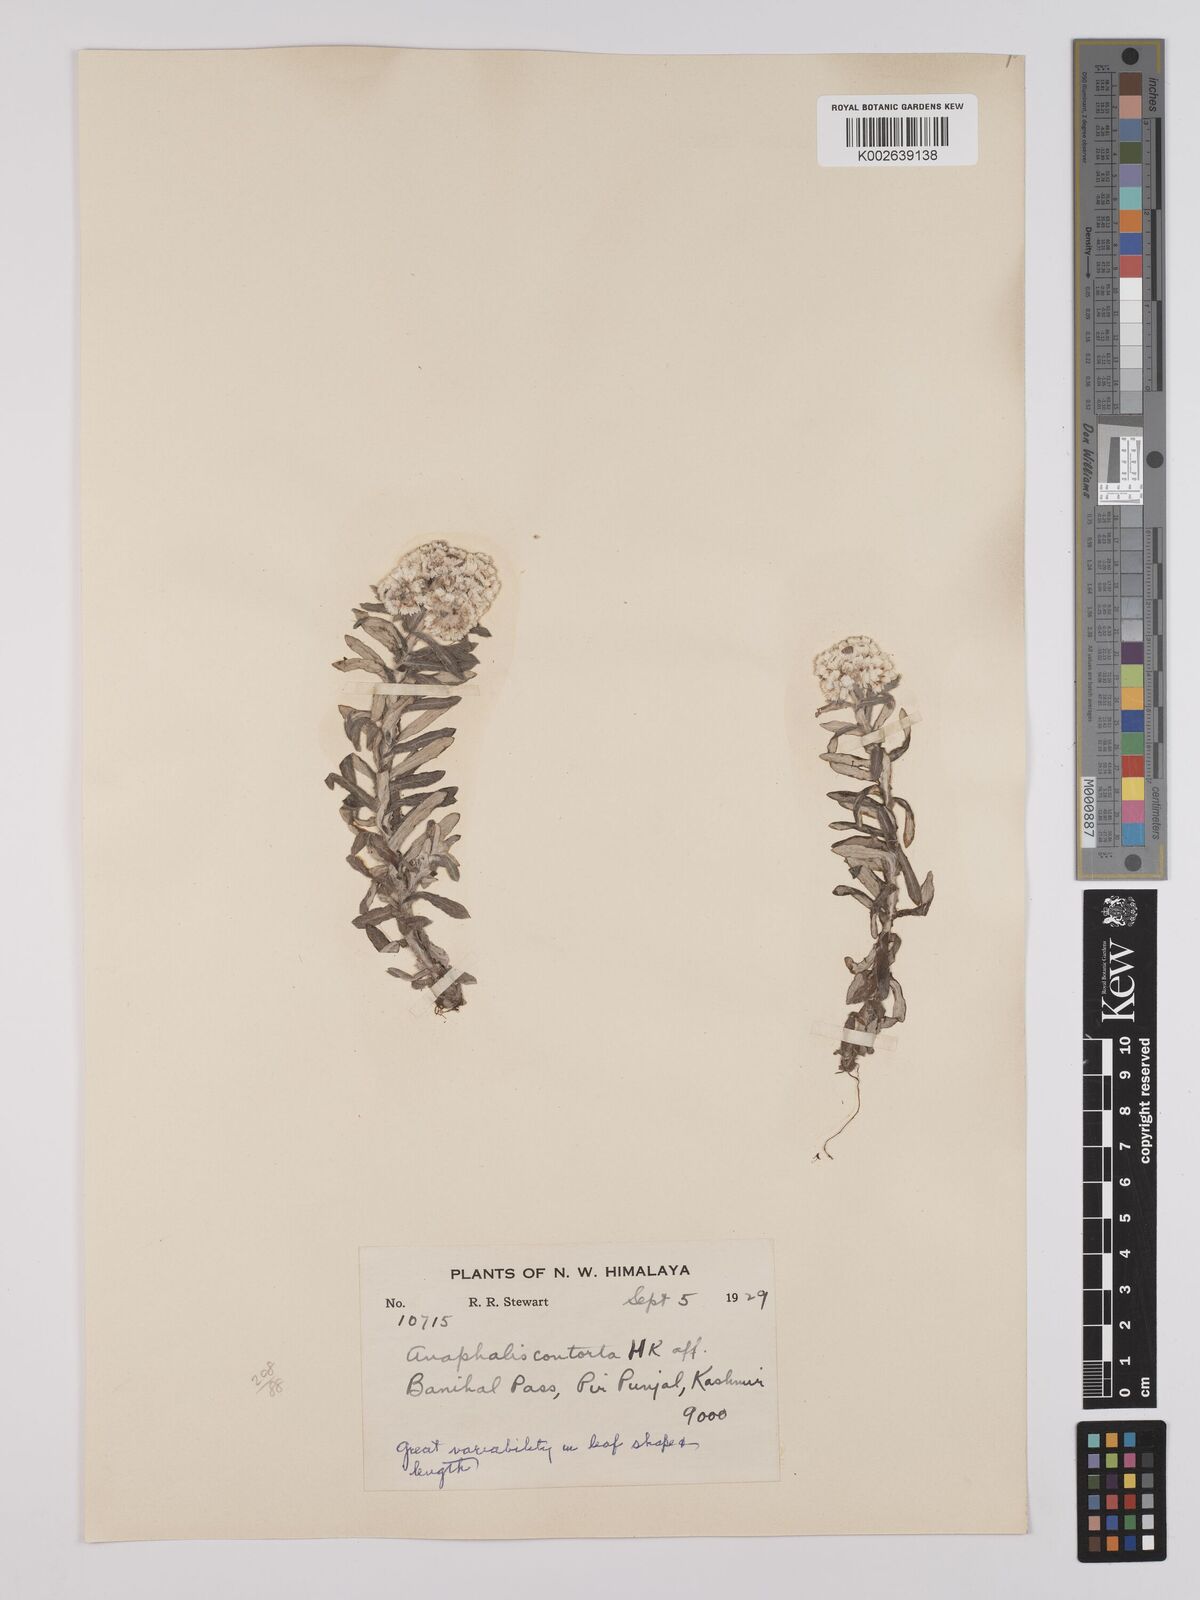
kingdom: Plantae
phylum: Tracheophyta
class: Magnoliopsida
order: Asterales
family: Asteraceae
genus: Anaphalis
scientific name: Anaphalis contorta
